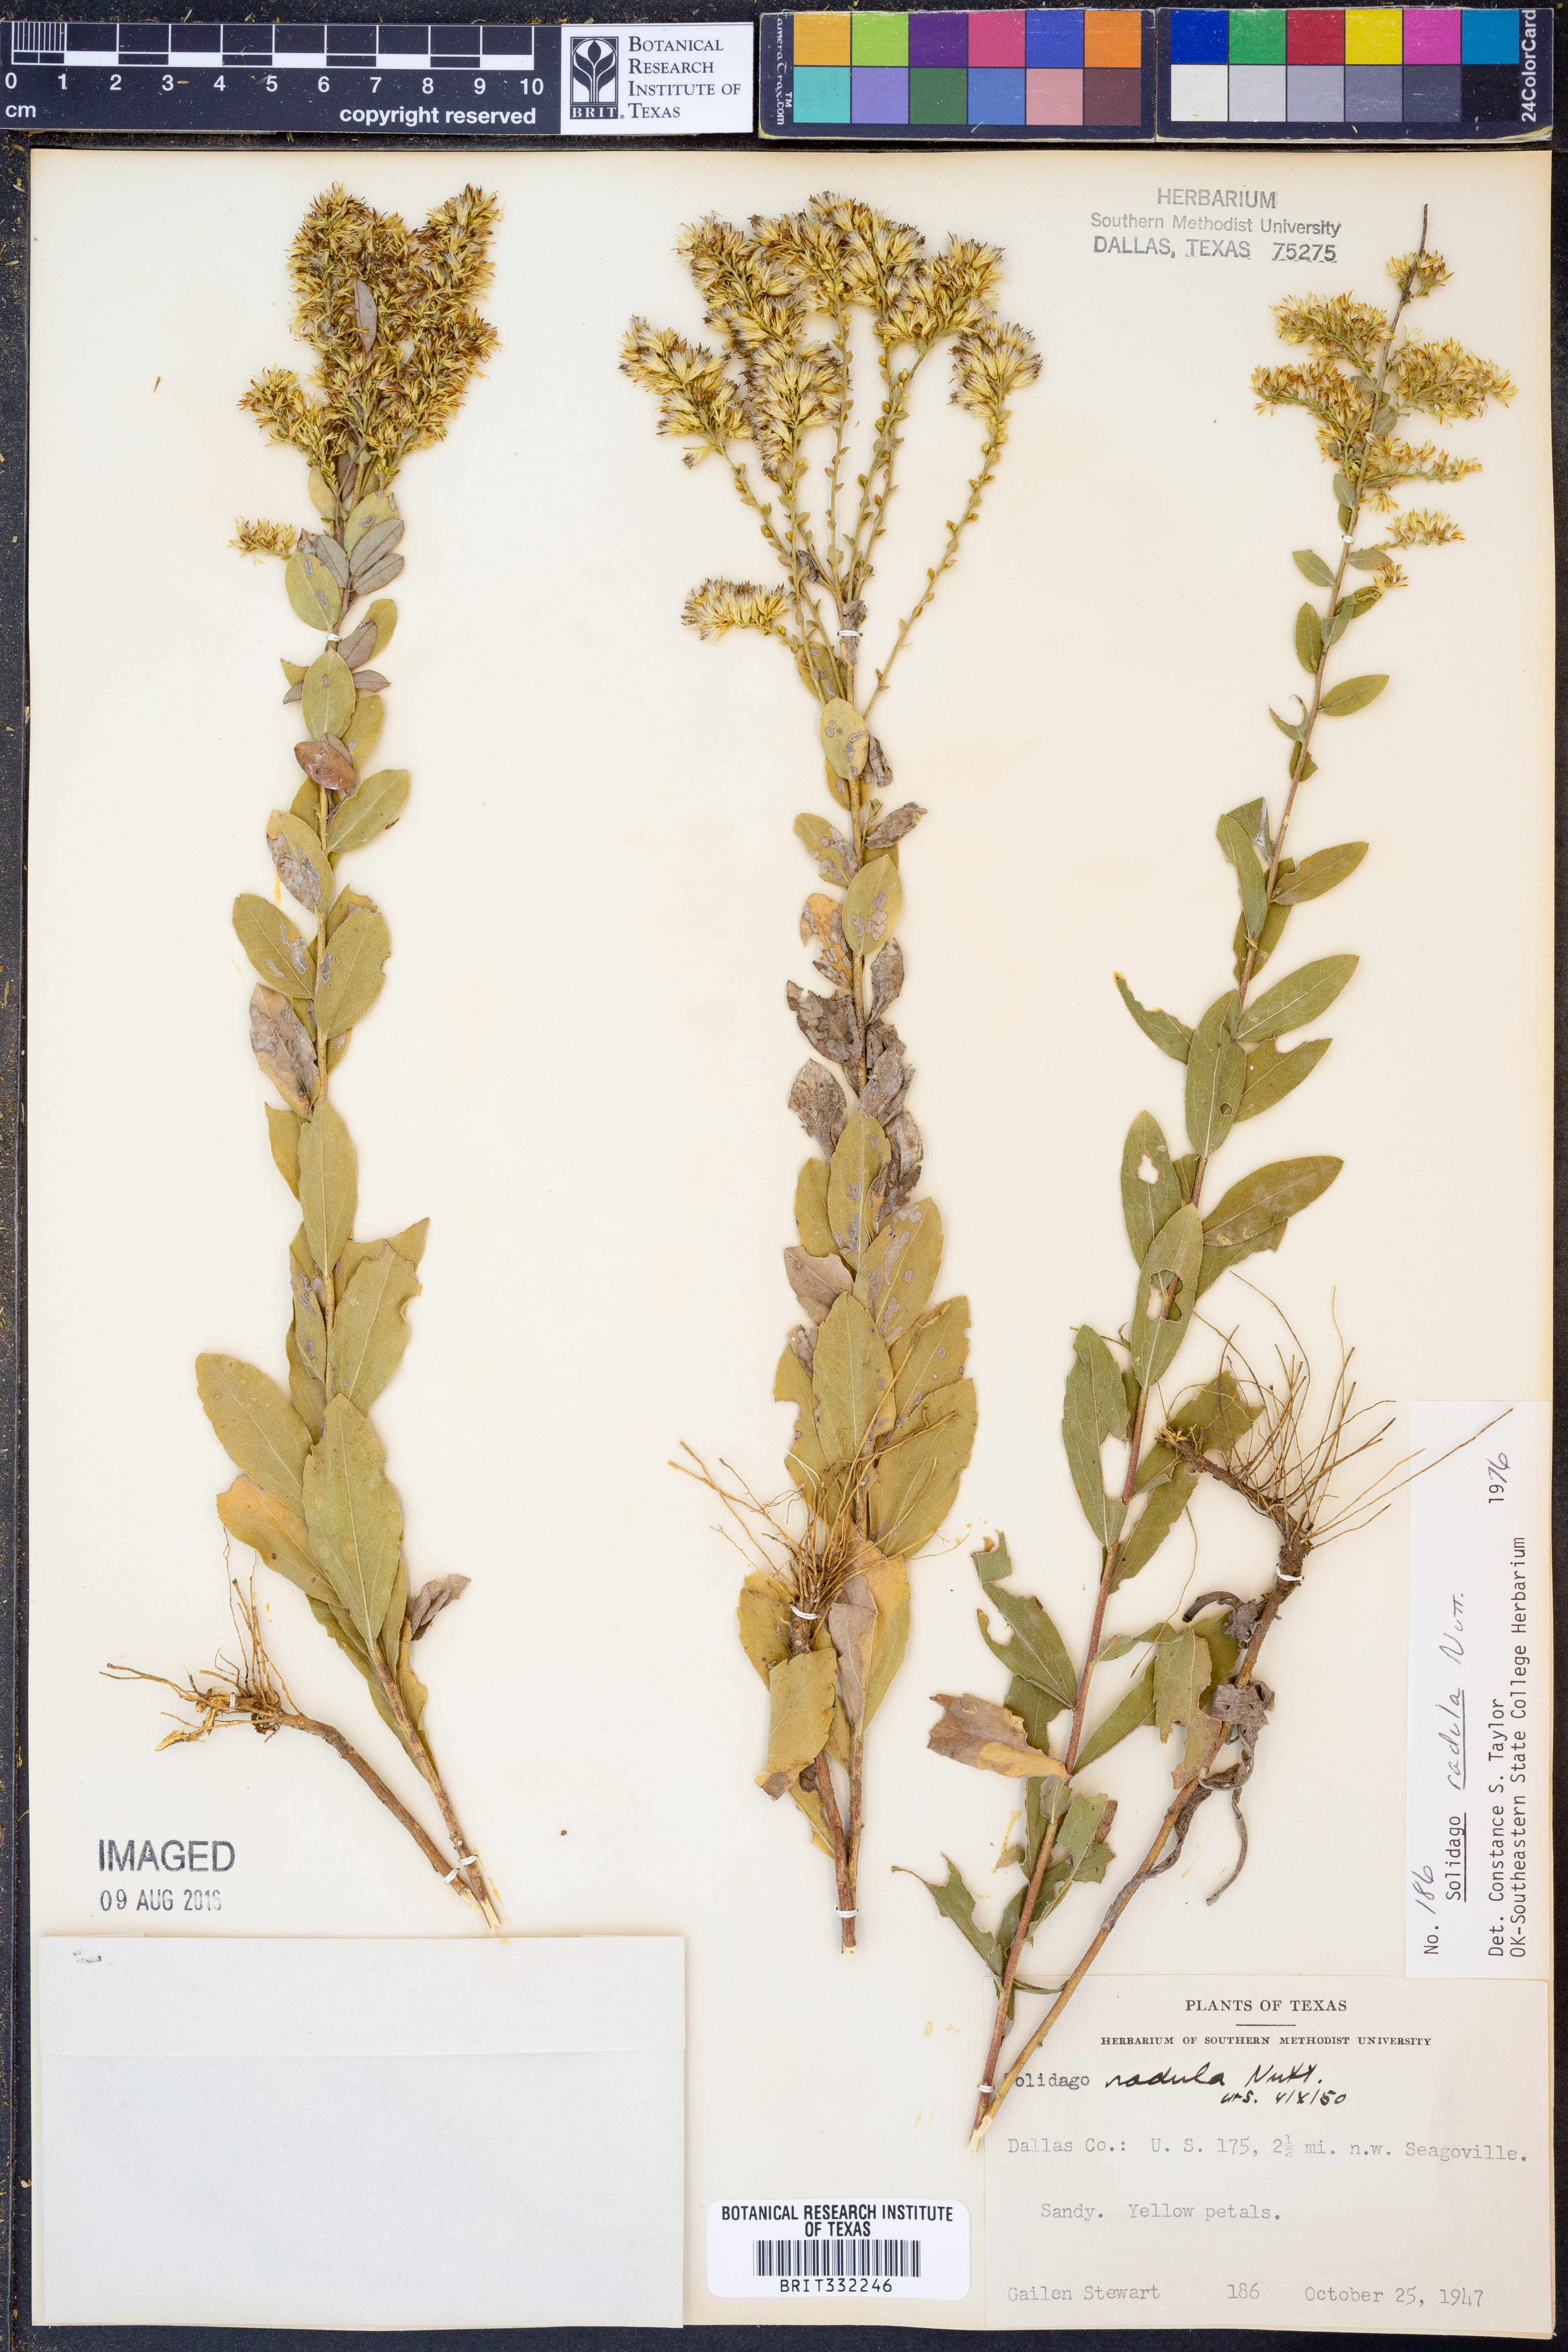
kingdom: Plantae
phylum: Tracheophyta
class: Magnoliopsida
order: Asterales
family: Asteraceae
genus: Solidago
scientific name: Solidago radula
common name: Western rough goldenrod
